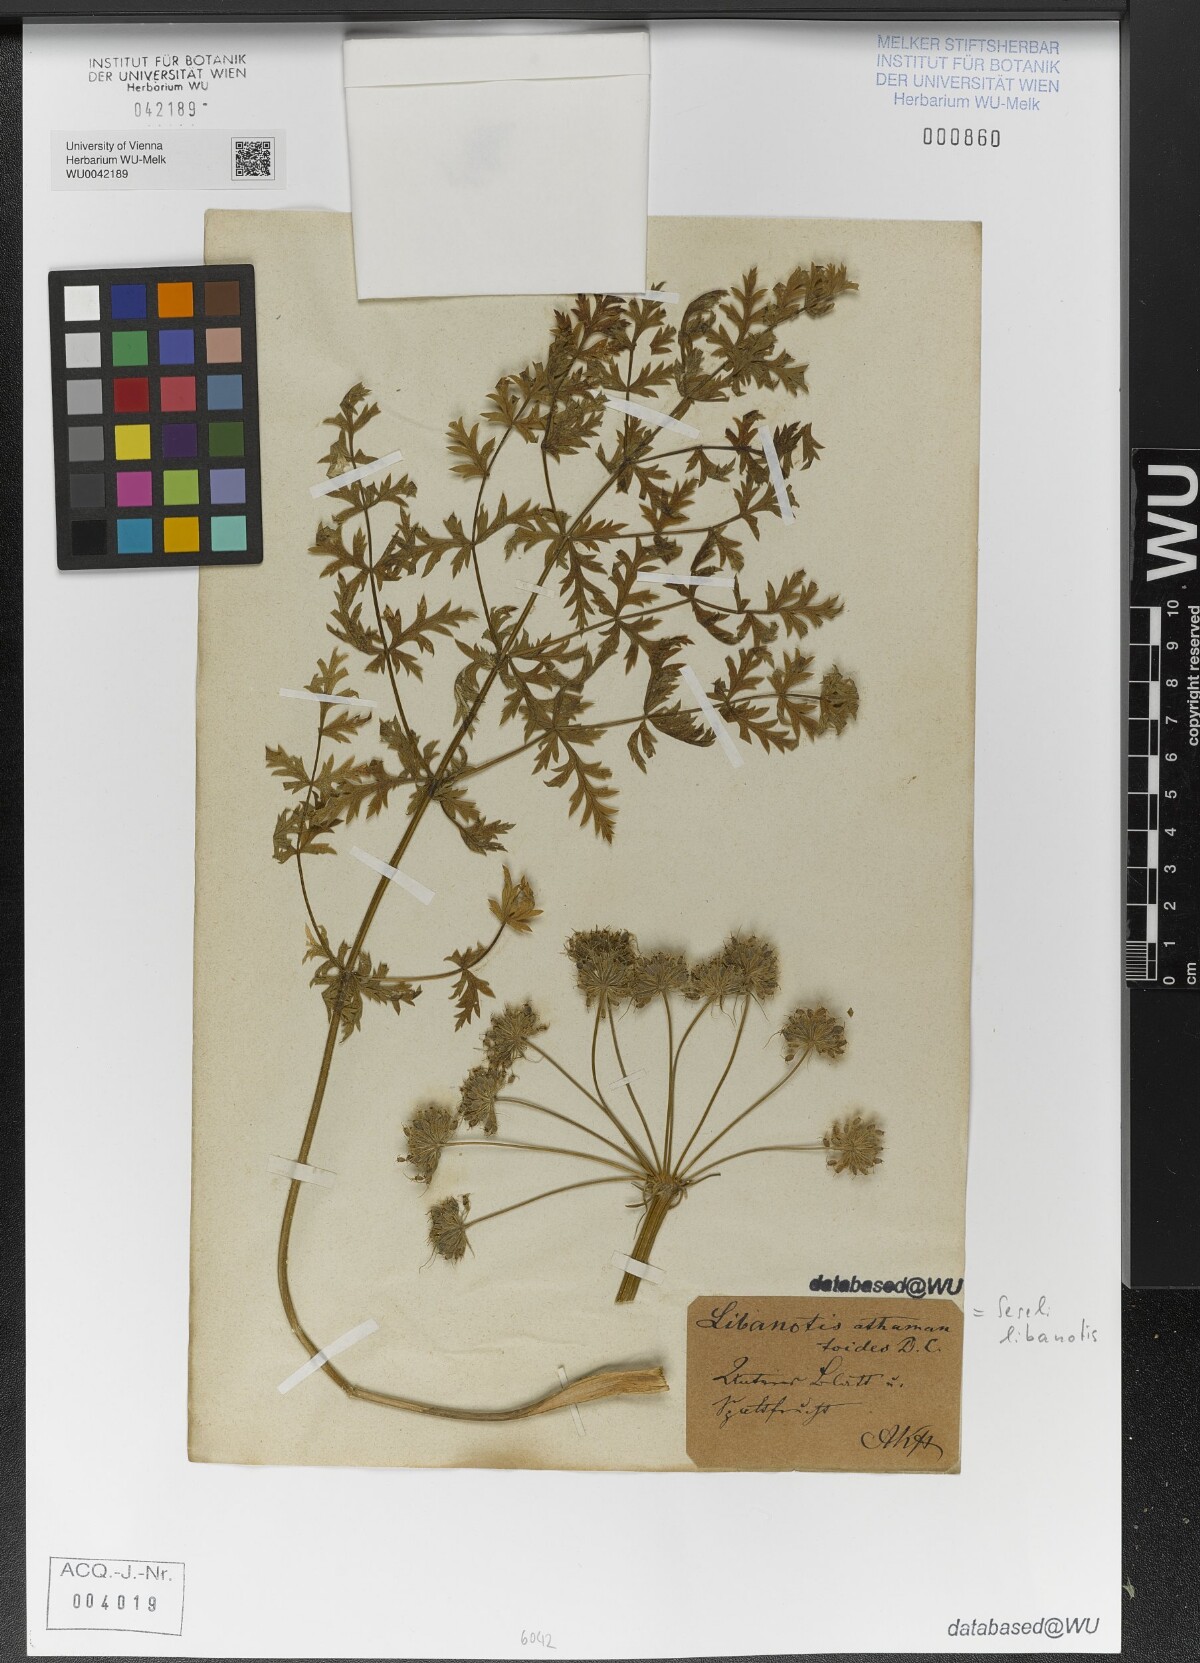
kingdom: Plantae
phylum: Tracheophyta
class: Magnoliopsida
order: Apiales
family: Apiaceae
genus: Seseli
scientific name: Seseli libanotis
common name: Mooncarrot
